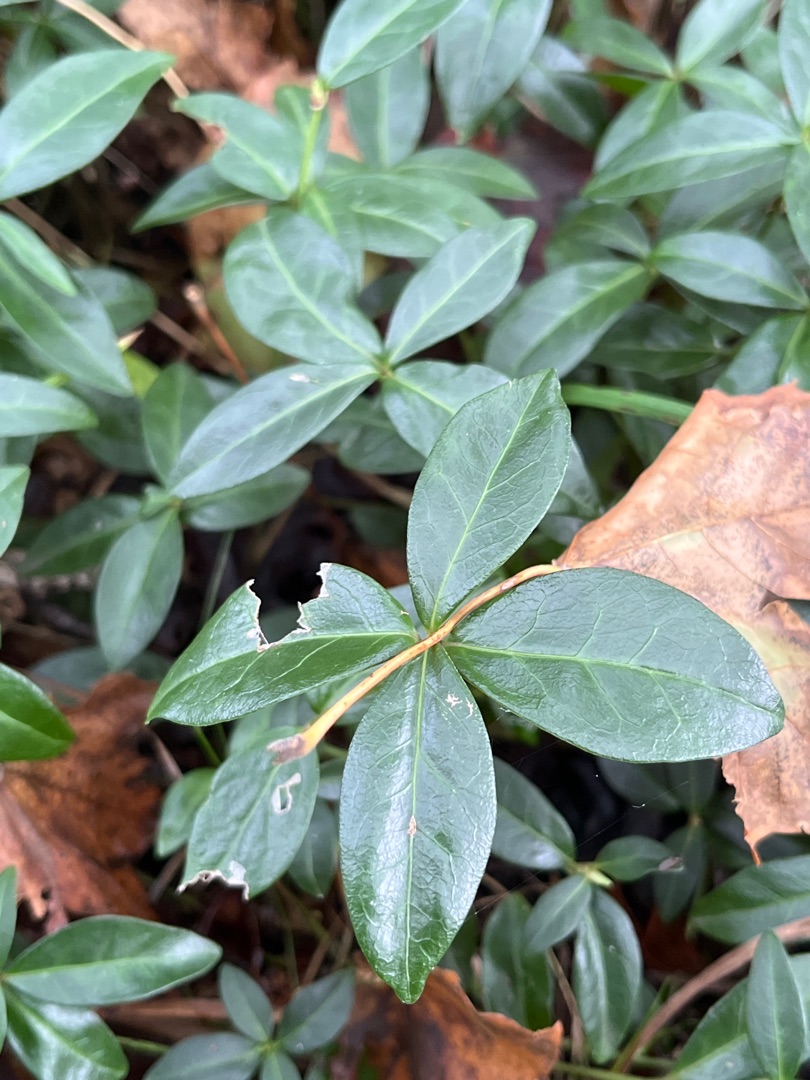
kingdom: Plantae
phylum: Tracheophyta
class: Magnoliopsida
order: Gentianales
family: Apocynaceae
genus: Vinca
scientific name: Vinca minor
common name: Liden singrøn
